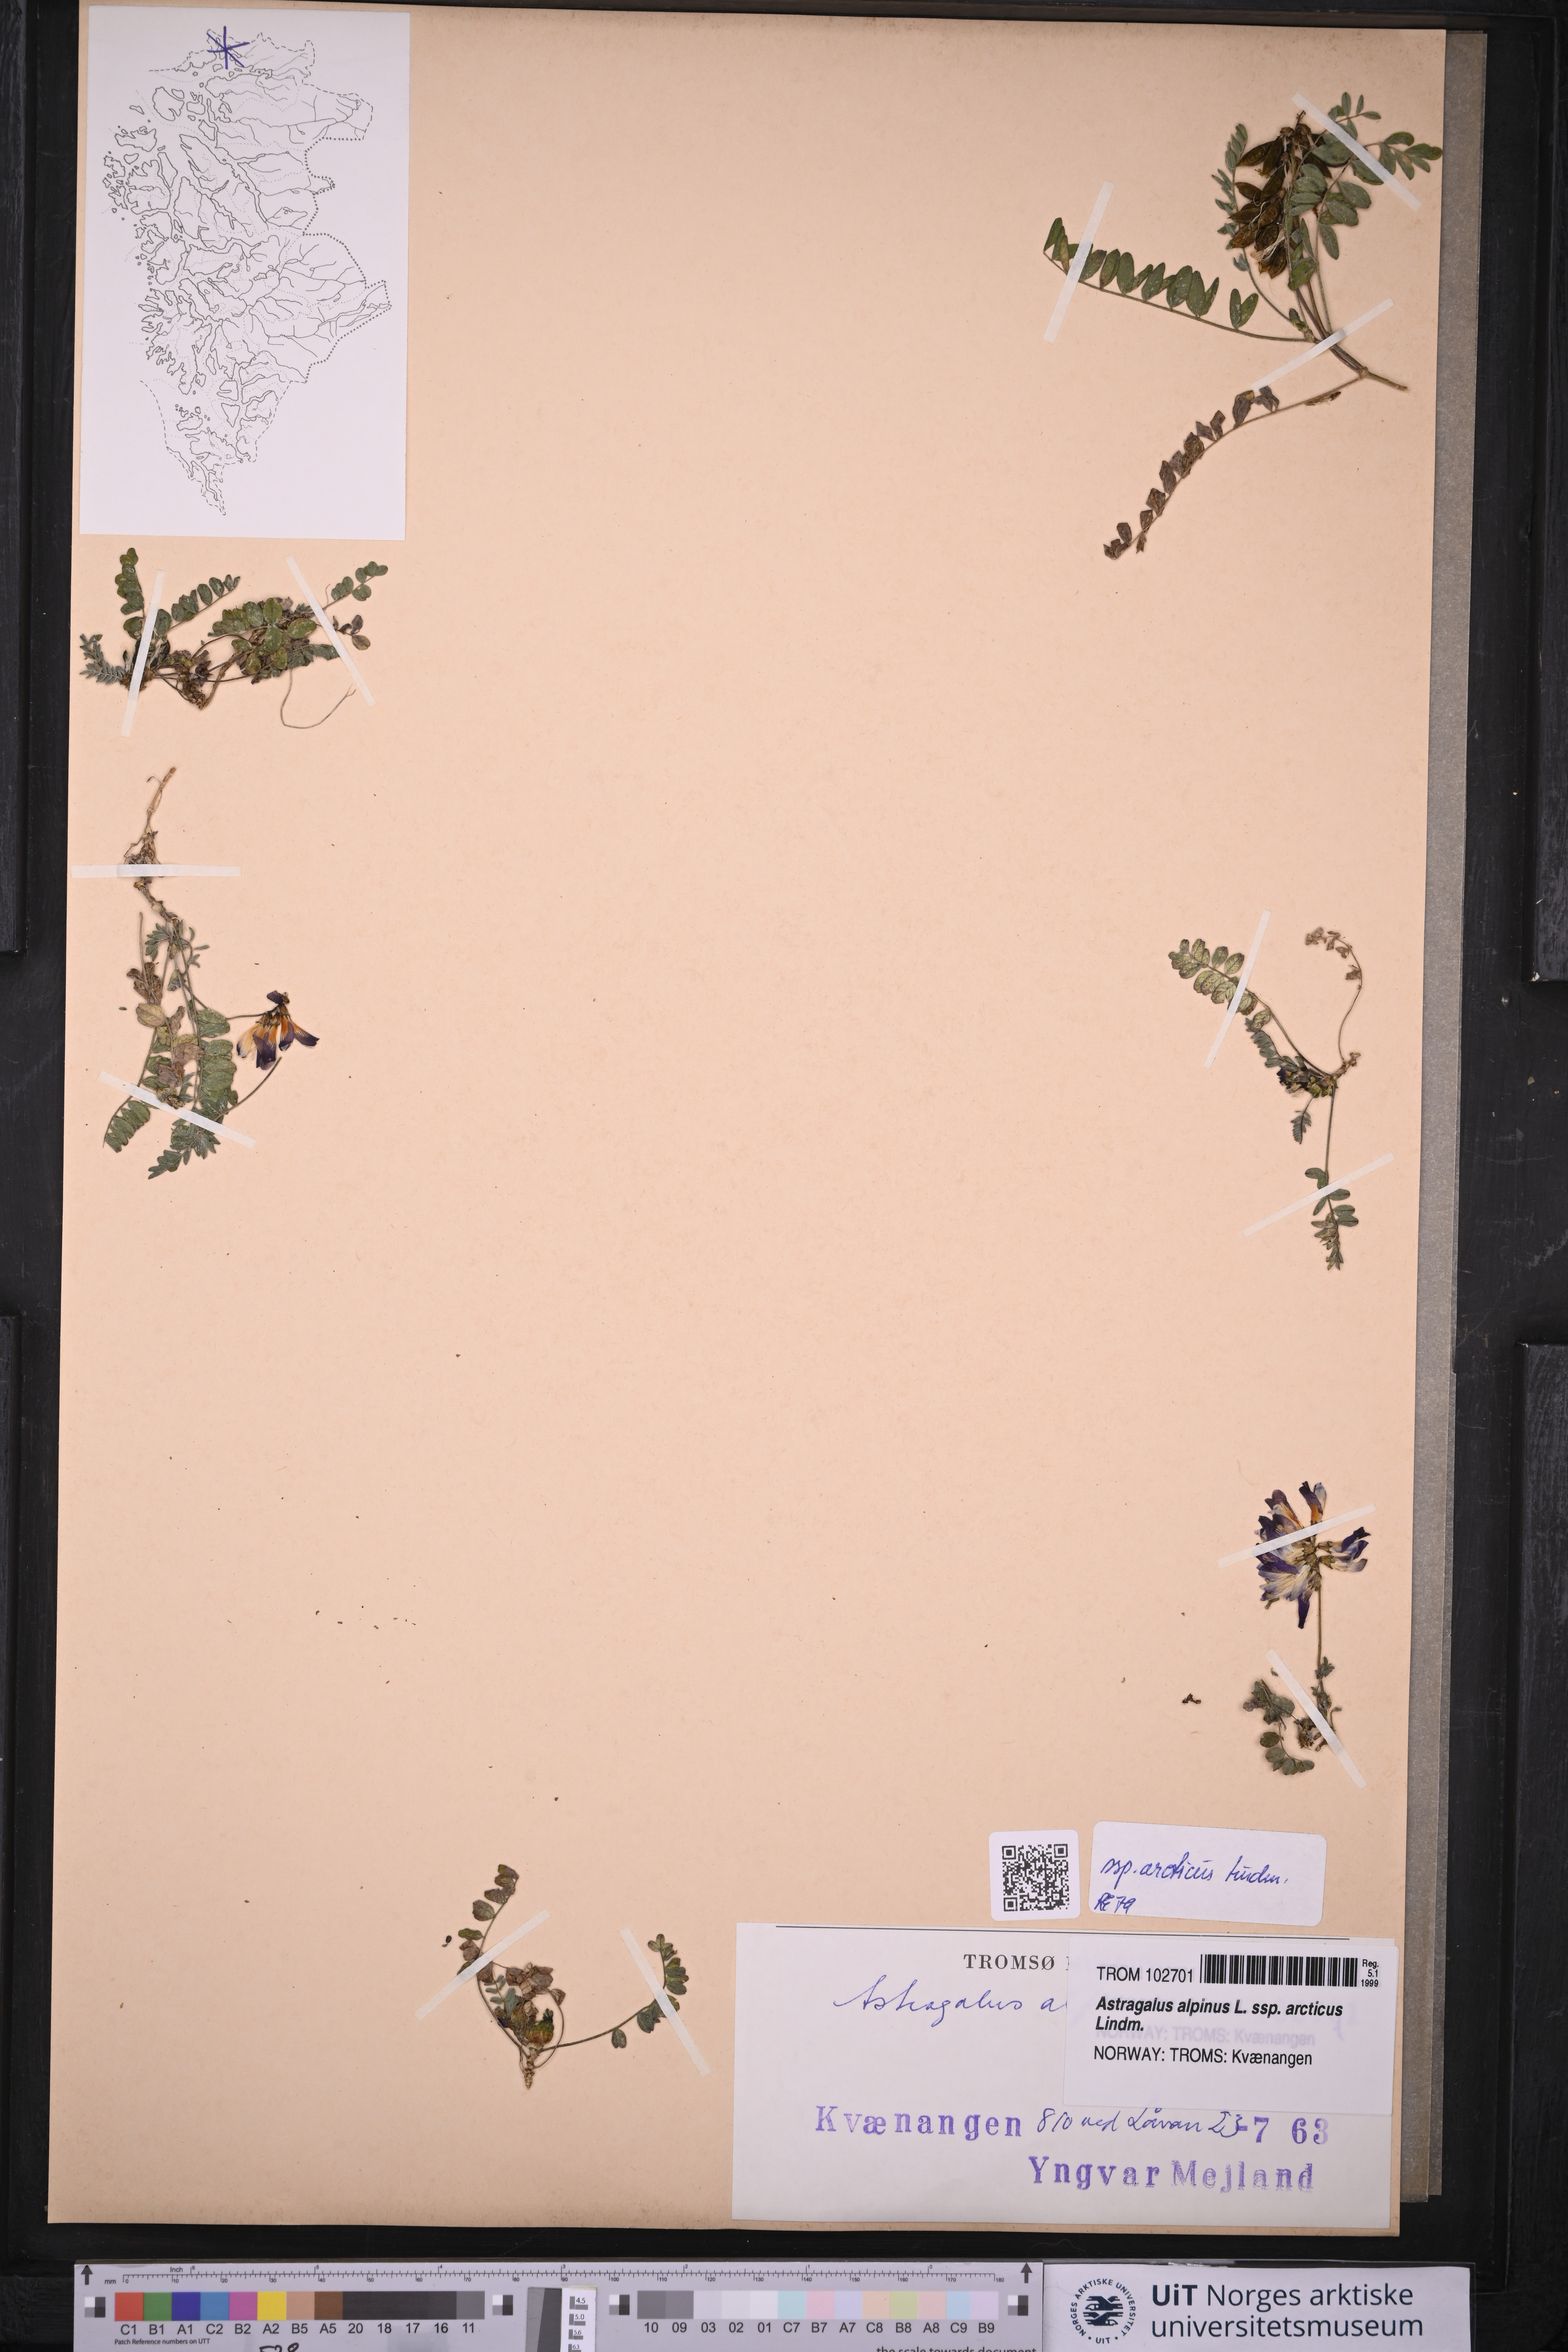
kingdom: Plantae
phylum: Tracheophyta
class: Magnoliopsida
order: Fabales
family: Fabaceae
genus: Astragalus
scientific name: Astragalus norvegicus
